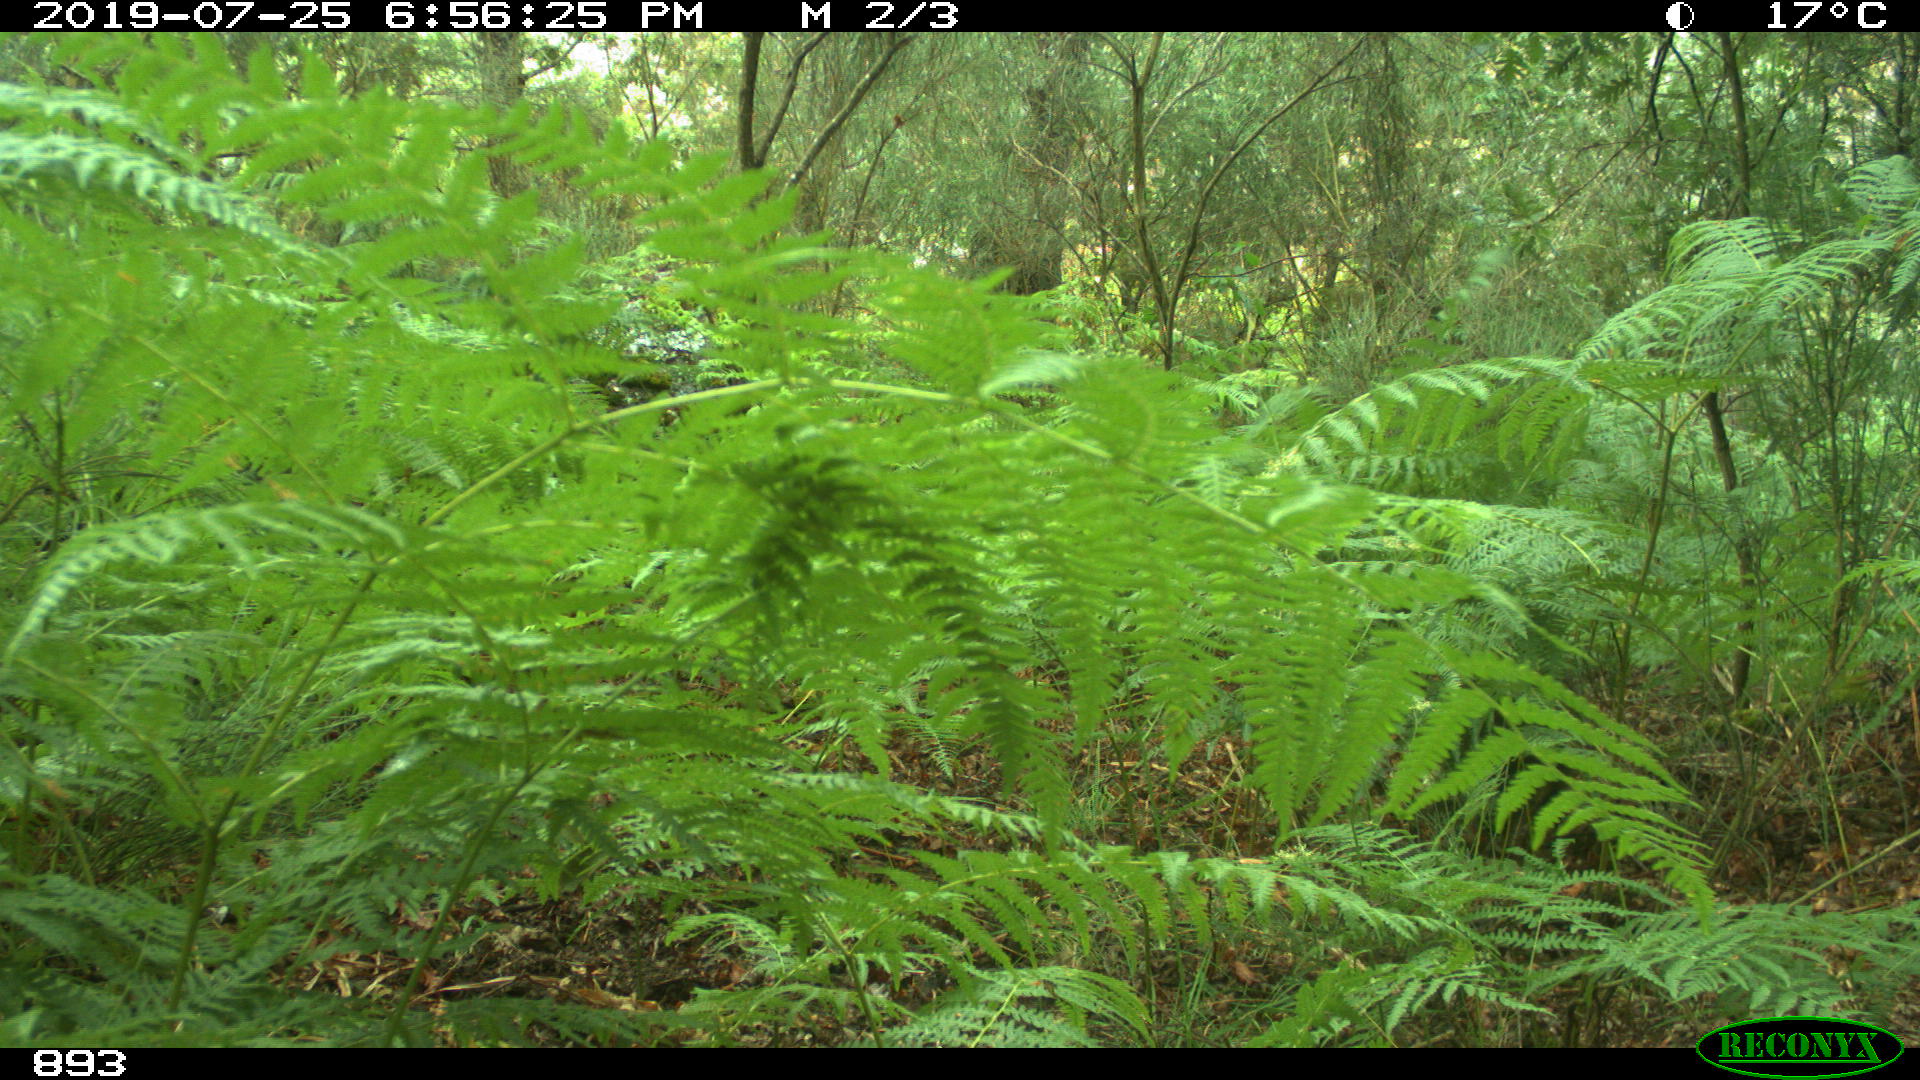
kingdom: Animalia
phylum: Chordata
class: Mammalia
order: Artiodactyla
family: Suidae
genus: Sus
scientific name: Sus scrofa
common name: Wild boar
